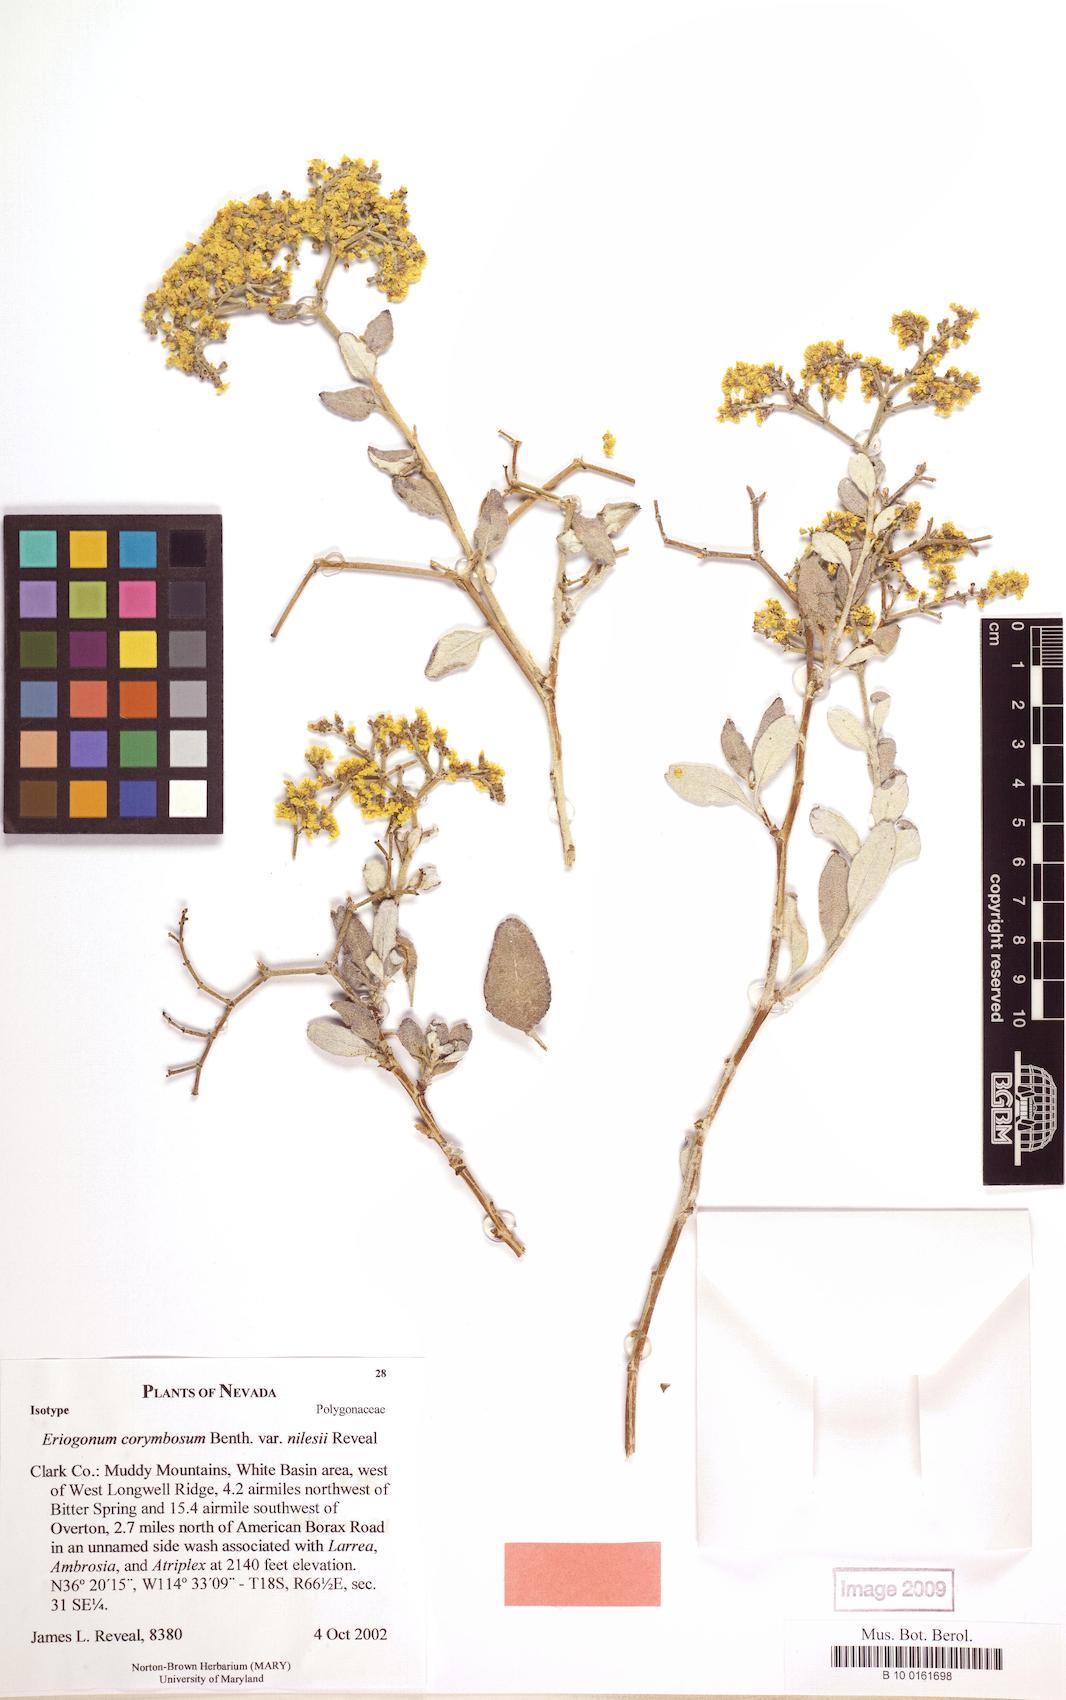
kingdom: Plantae
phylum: Tracheophyta
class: Magnoliopsida
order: Caryophyllales
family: Polygonaceae
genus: Eriogonum
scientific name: Eriogonum corymbosum
